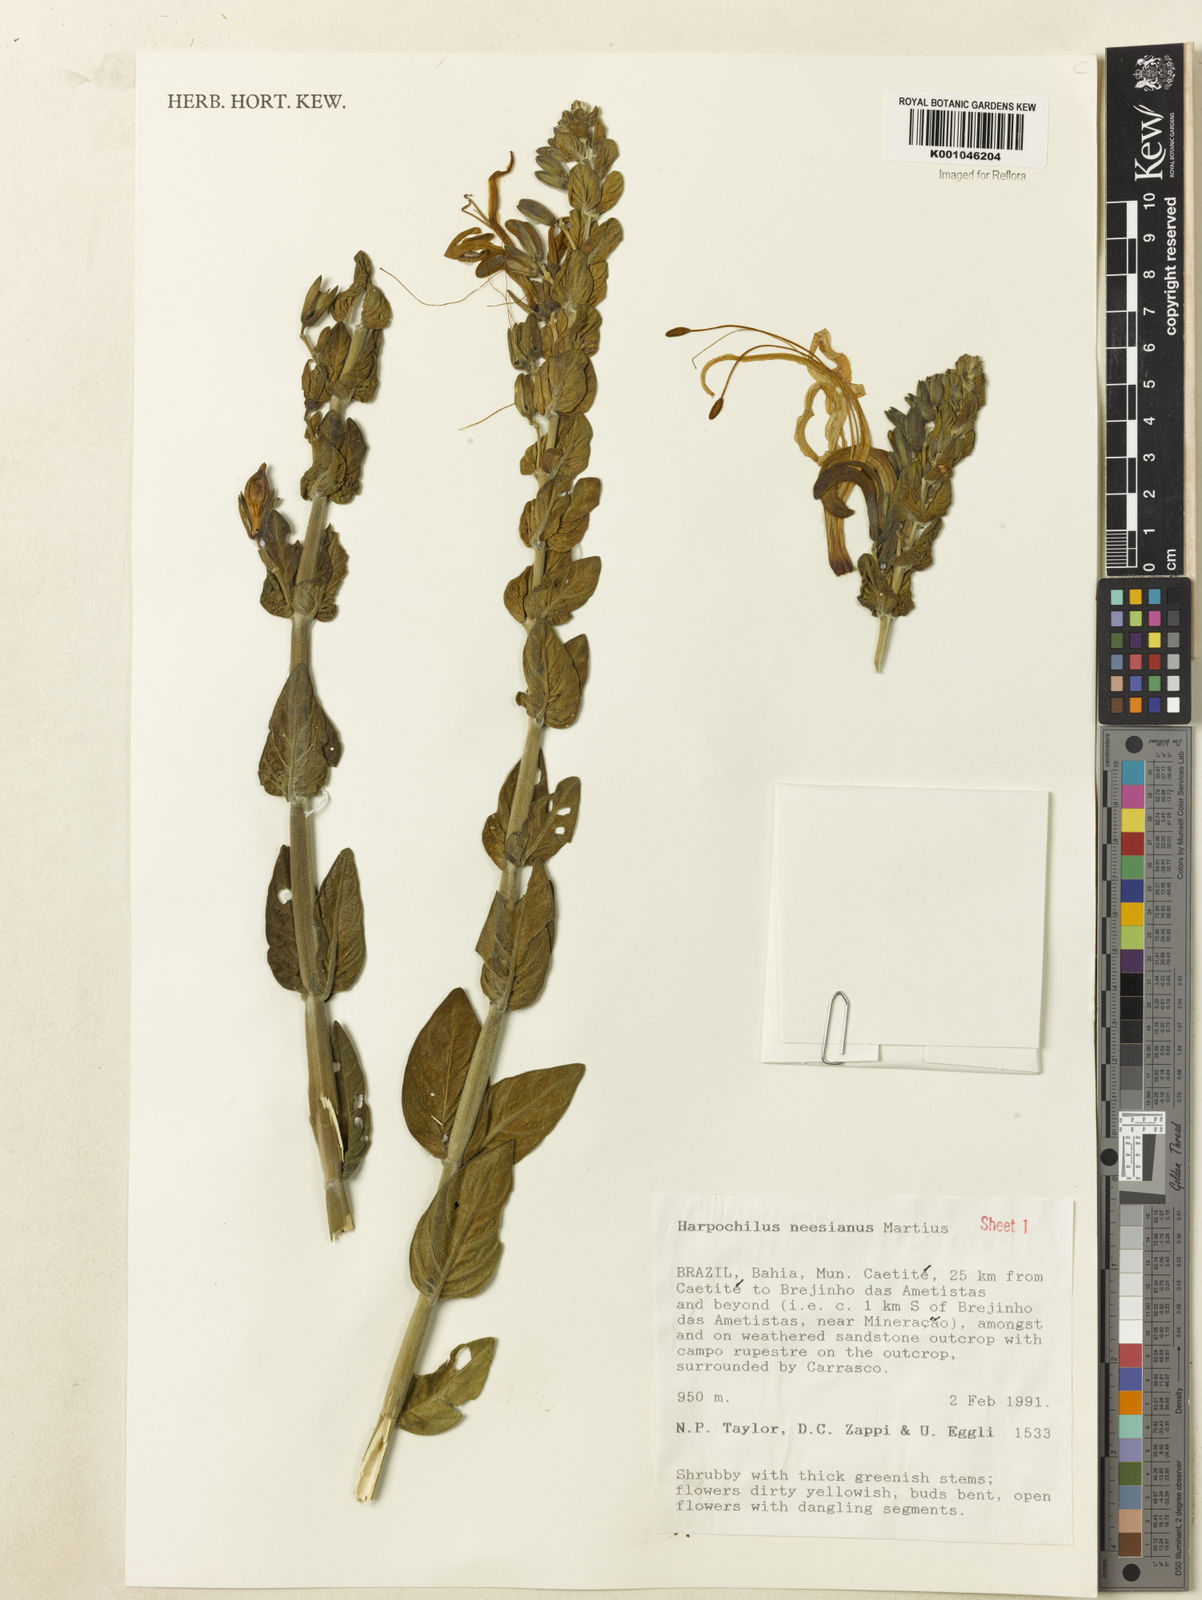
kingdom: Plantae
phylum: Tracheophyta
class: Magnoliopsida
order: Lamiales
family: Acanthaceae
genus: Harpochilus
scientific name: Harpochilus neesianus
